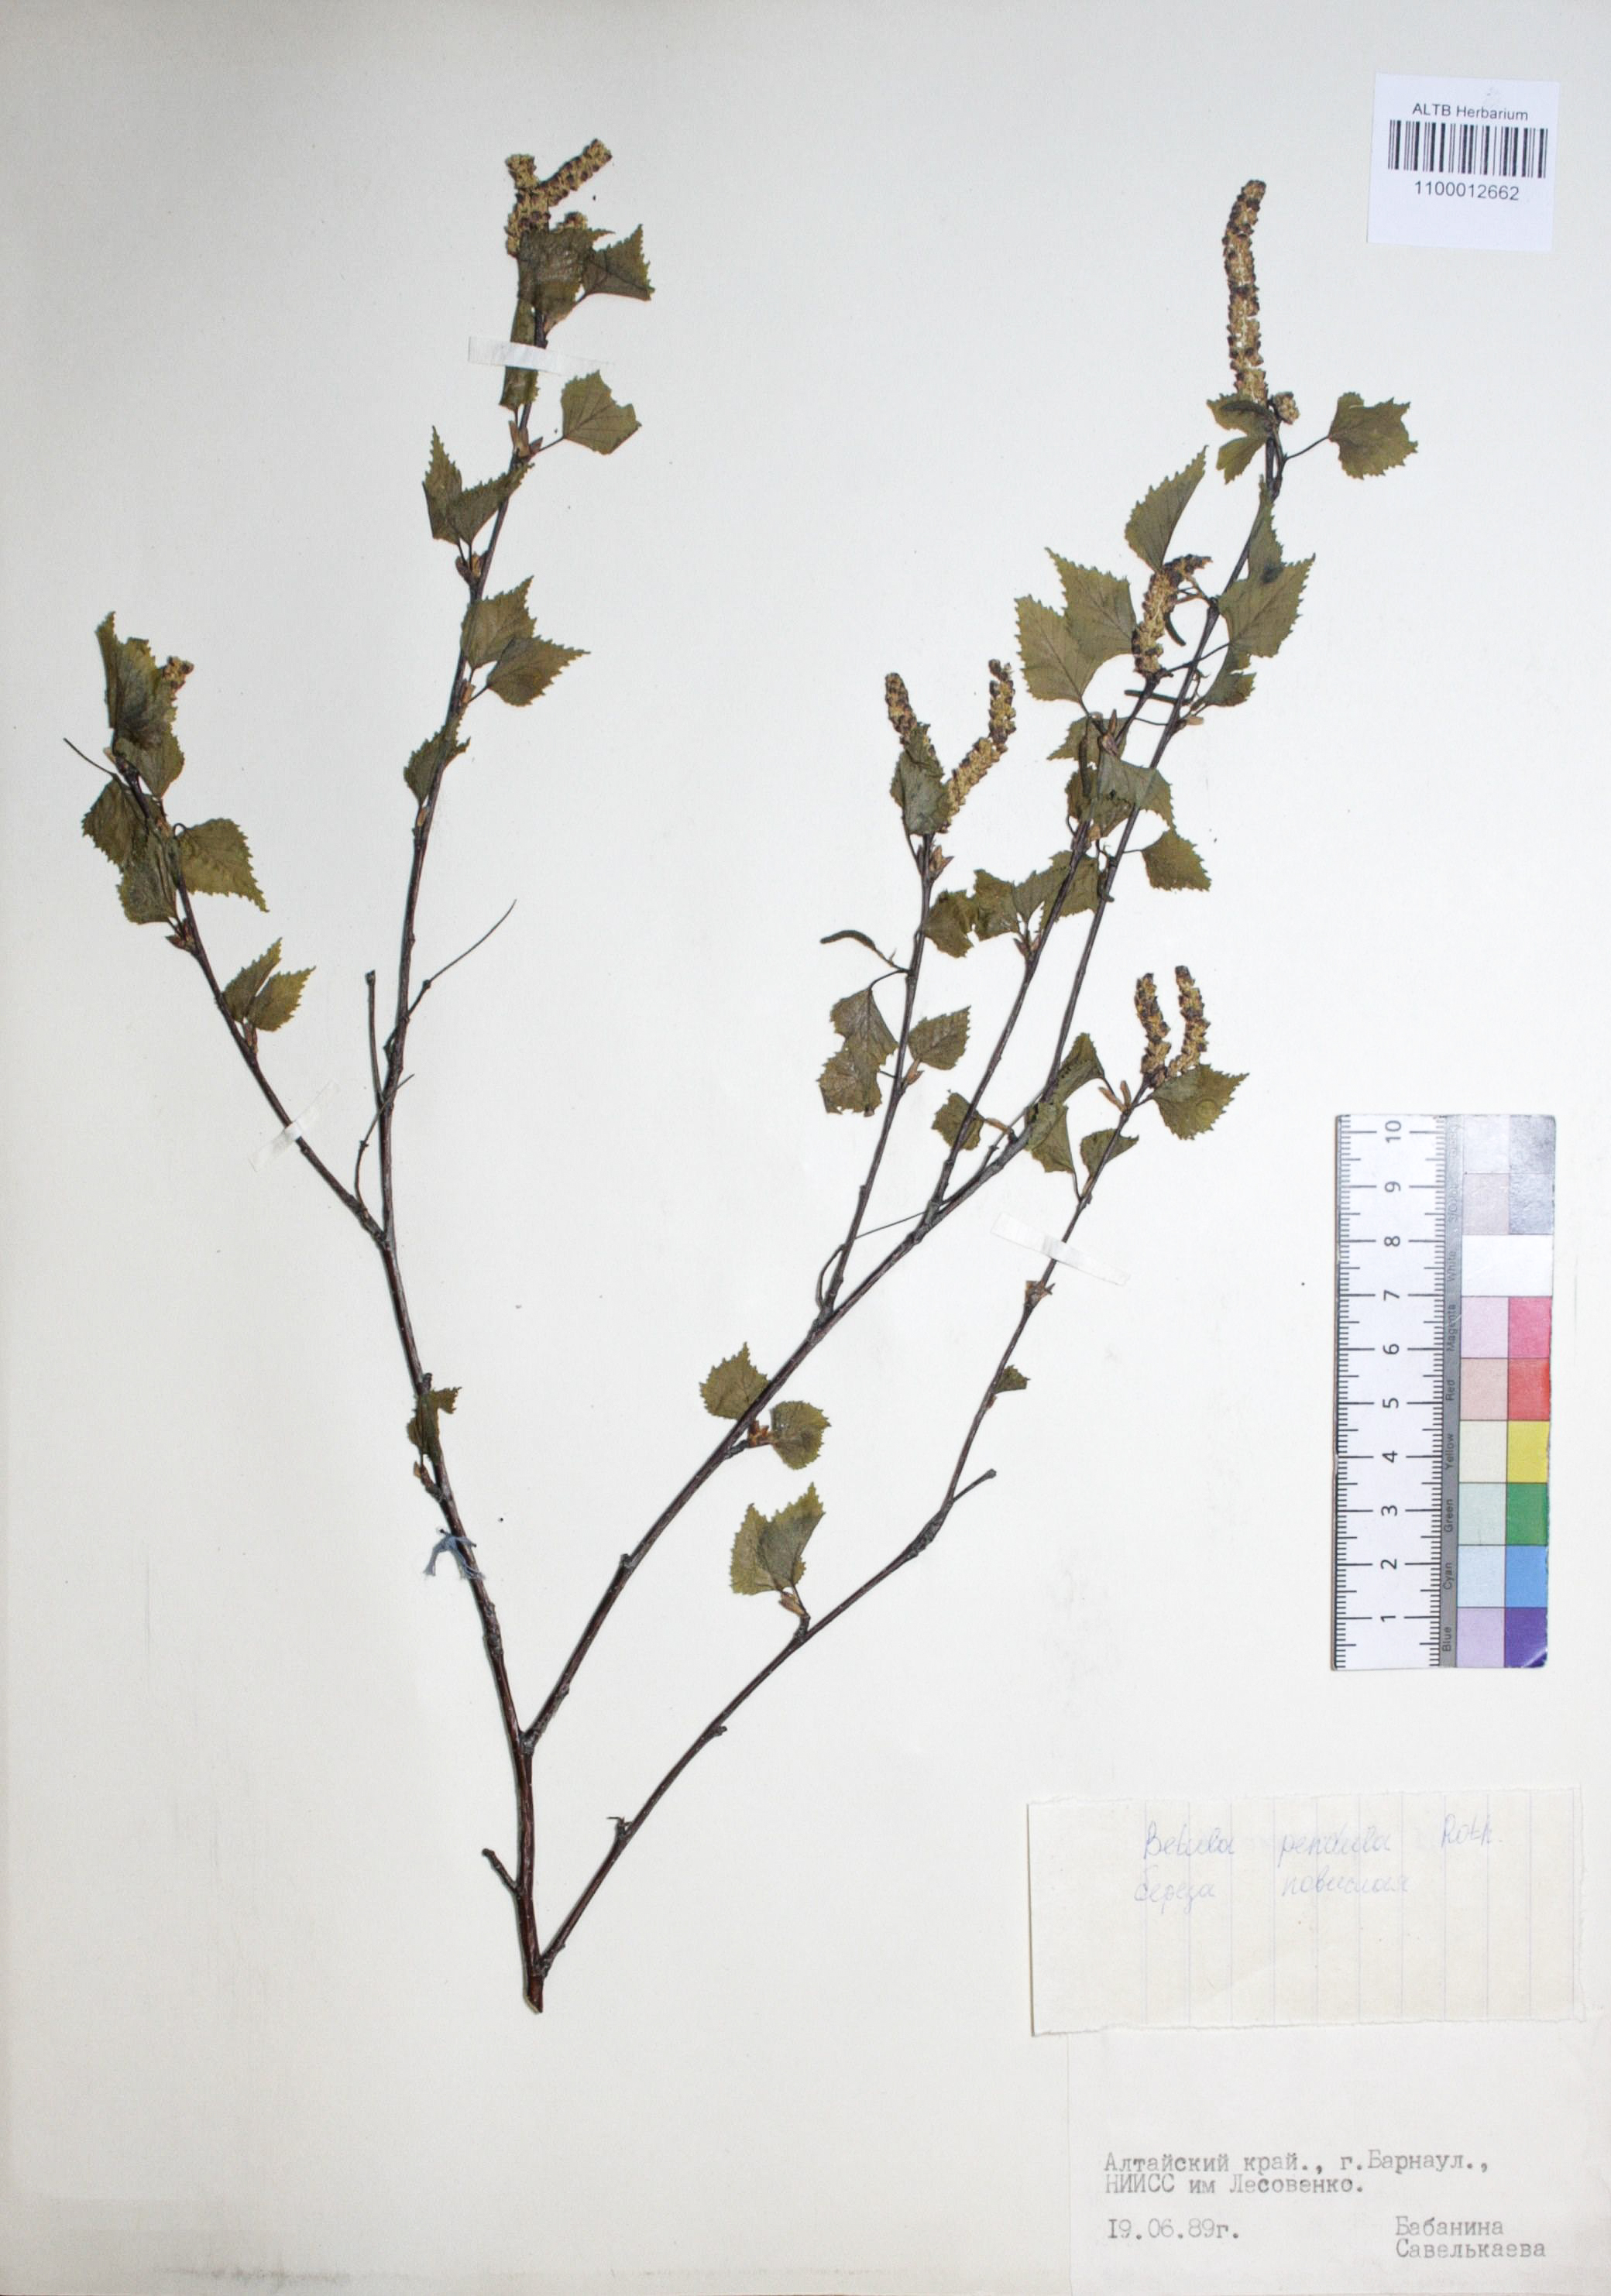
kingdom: Plantae
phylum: Tracheophyta
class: Magnoliopsida
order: Fagales
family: Betulaceae
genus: Betula
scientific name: Betula pendula
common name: Silver birch
